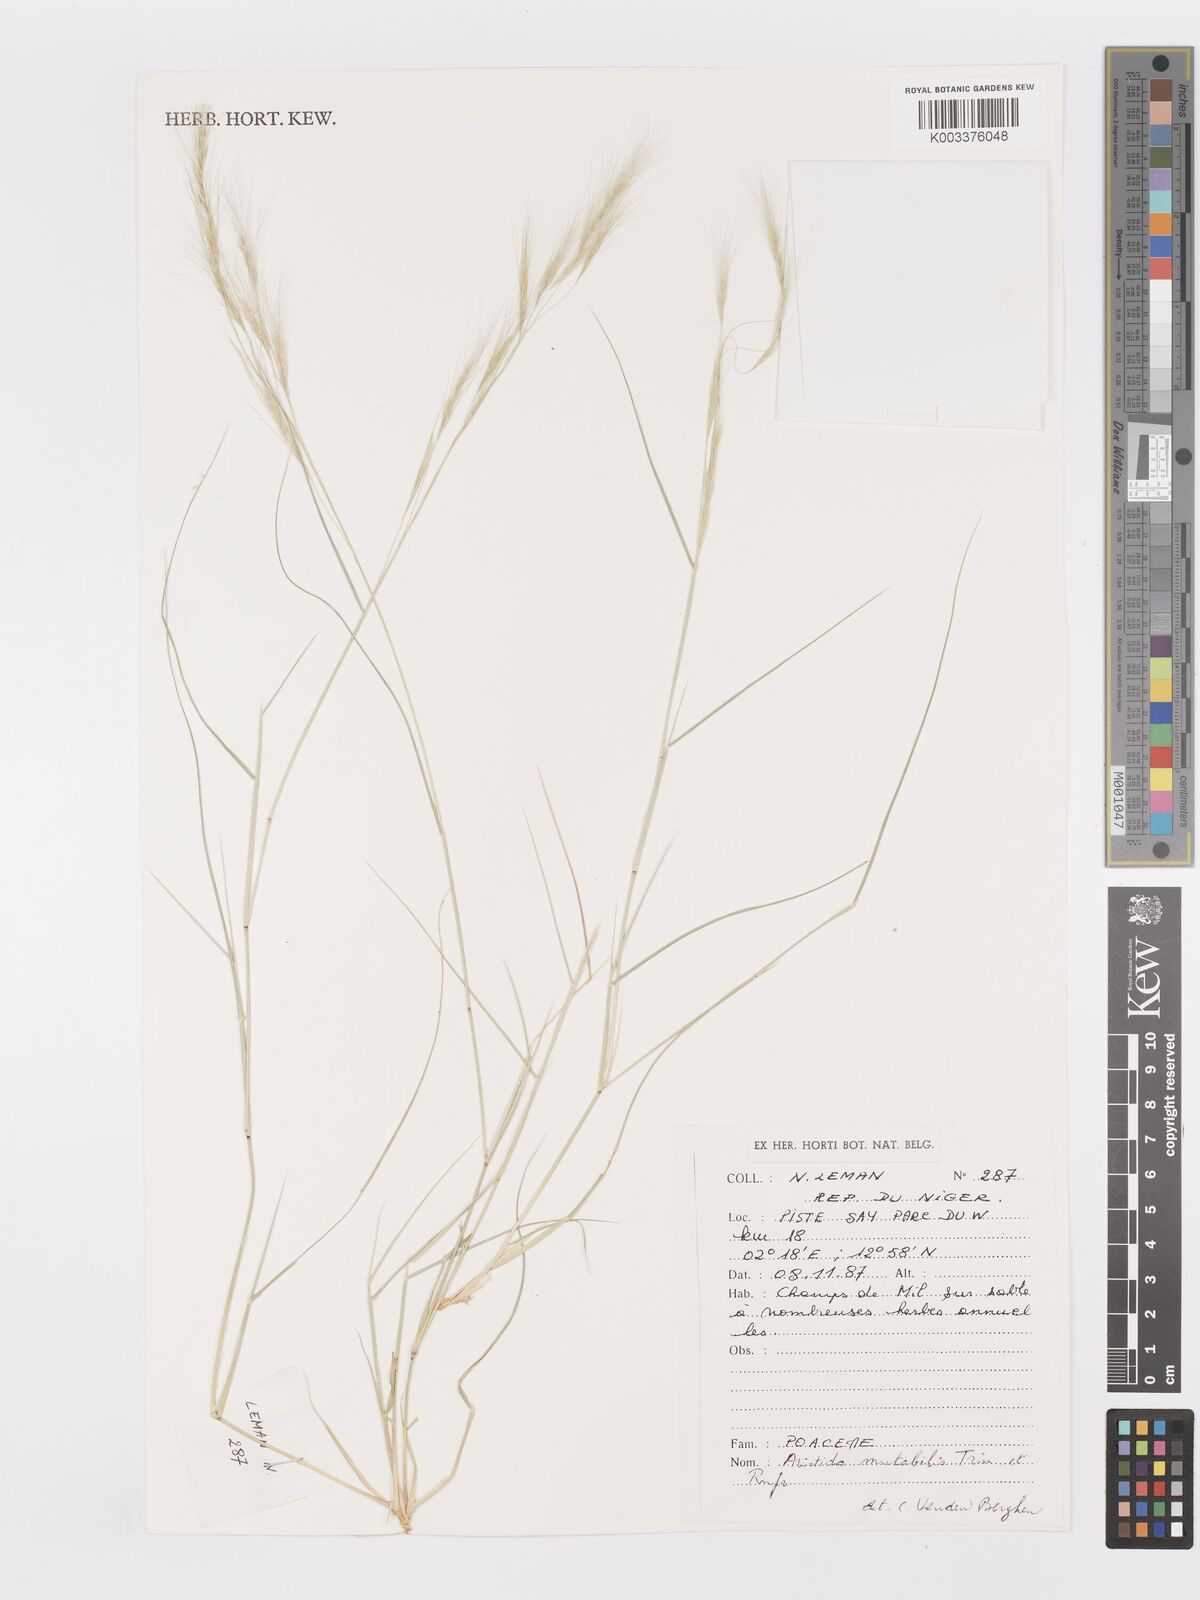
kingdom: Plantae
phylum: Tracheophyta
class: Liliopsida
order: Poales
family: Poaceae
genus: Aristida
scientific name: Aristida mutabilis
